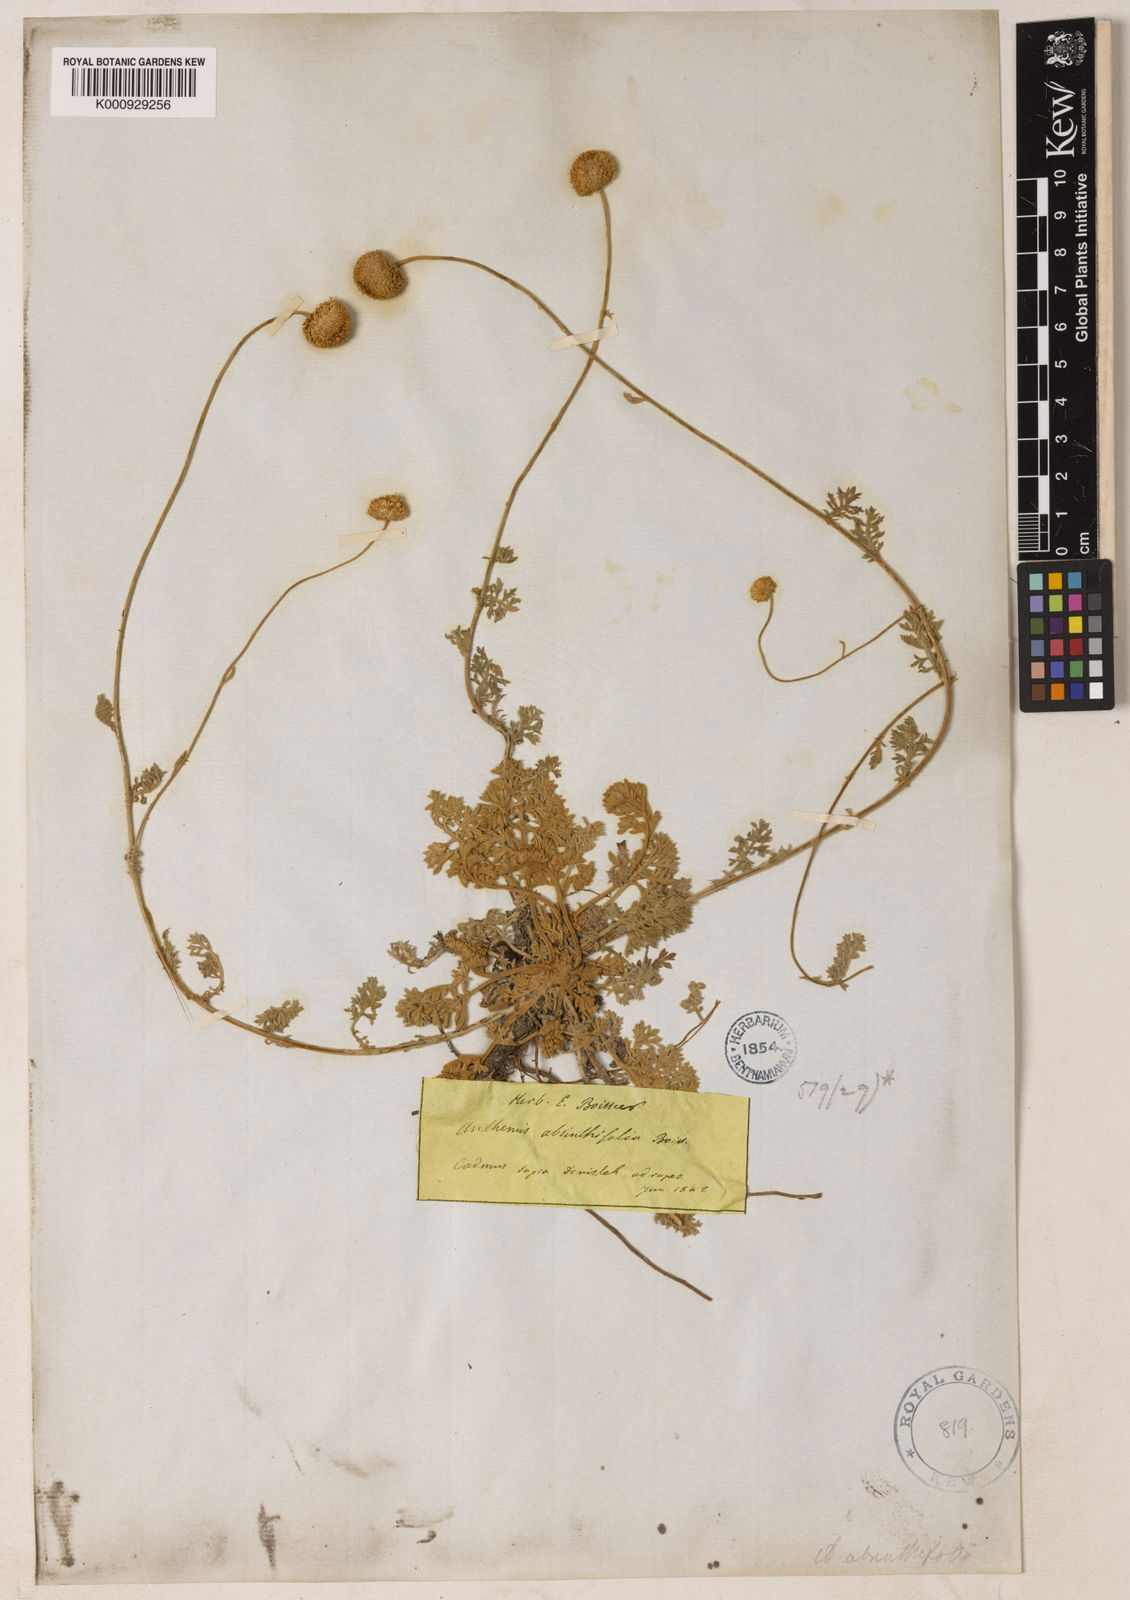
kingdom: Plantae
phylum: Tracheophyta
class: Magnoliopsida
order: Asterales
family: Asteraceae
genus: Anthemis
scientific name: Anthemis cretica
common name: Mountain dog-daisy
